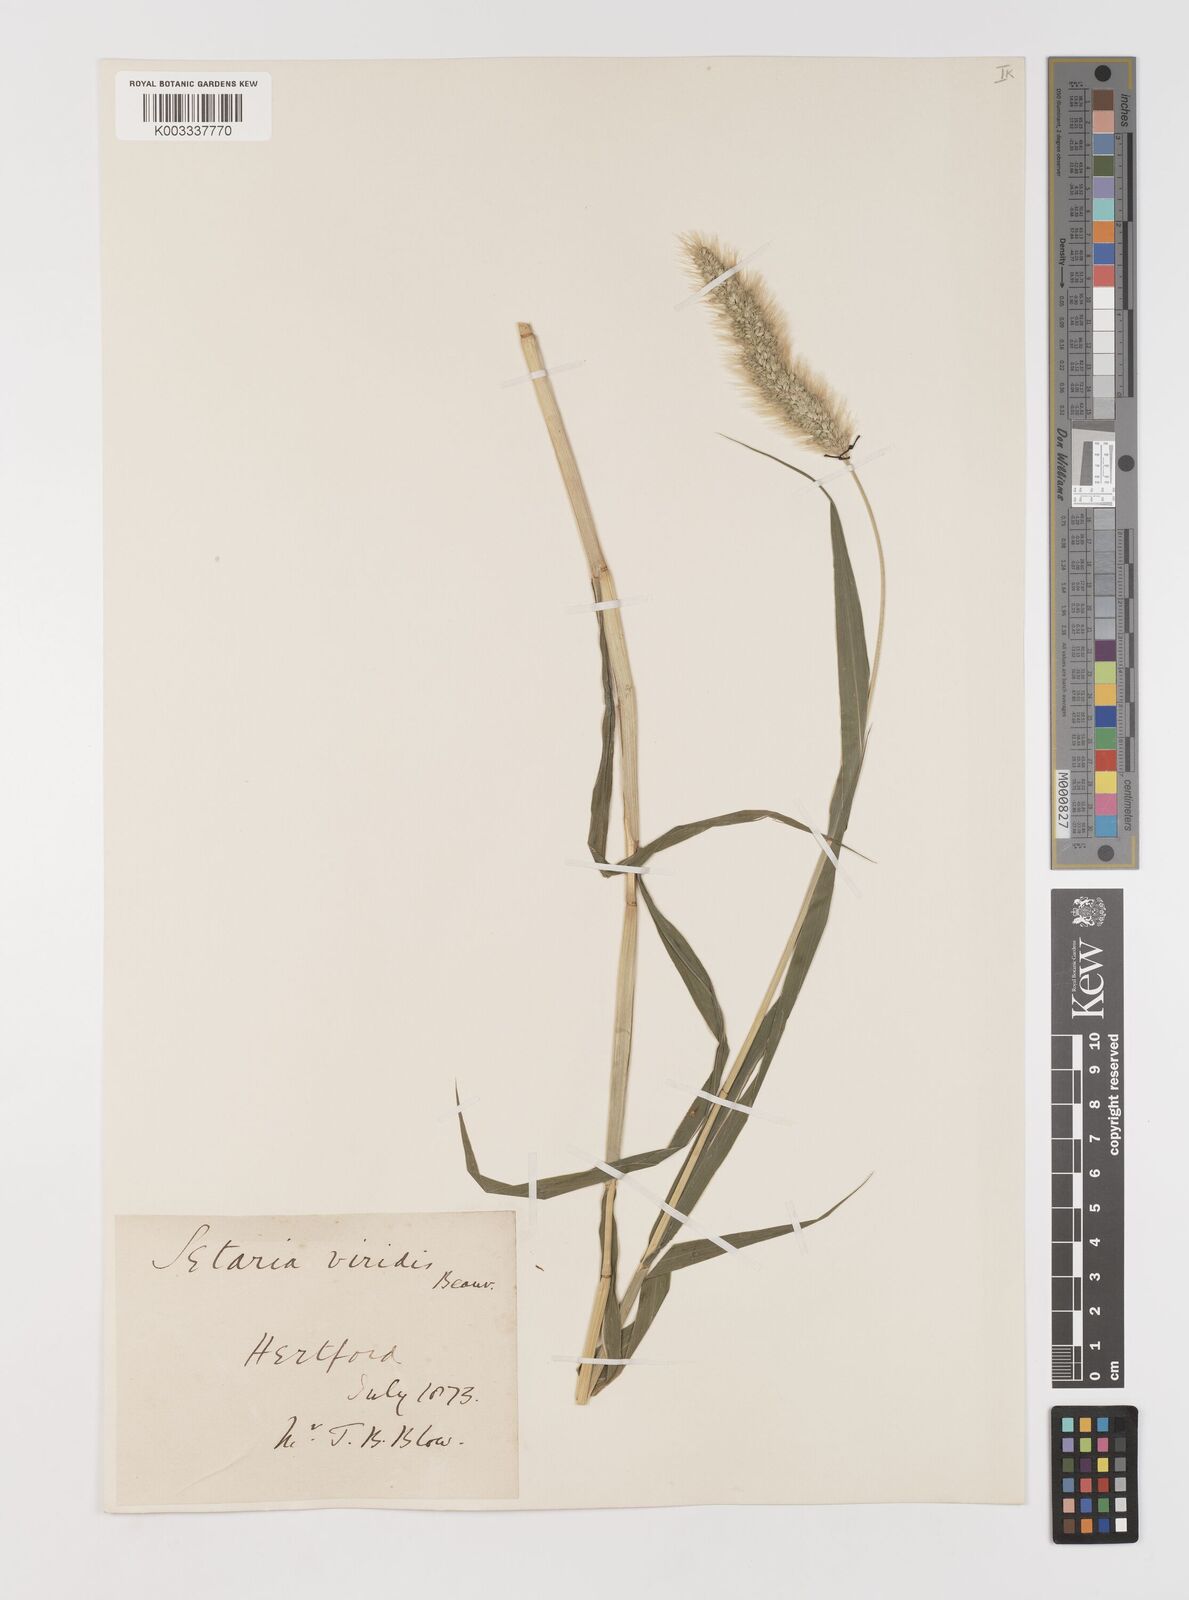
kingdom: Plantae
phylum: Tracheophyta
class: Liliopsida
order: Poales
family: Poaceae
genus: Setaria
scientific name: Setaria viridis
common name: Green bristlegrass
